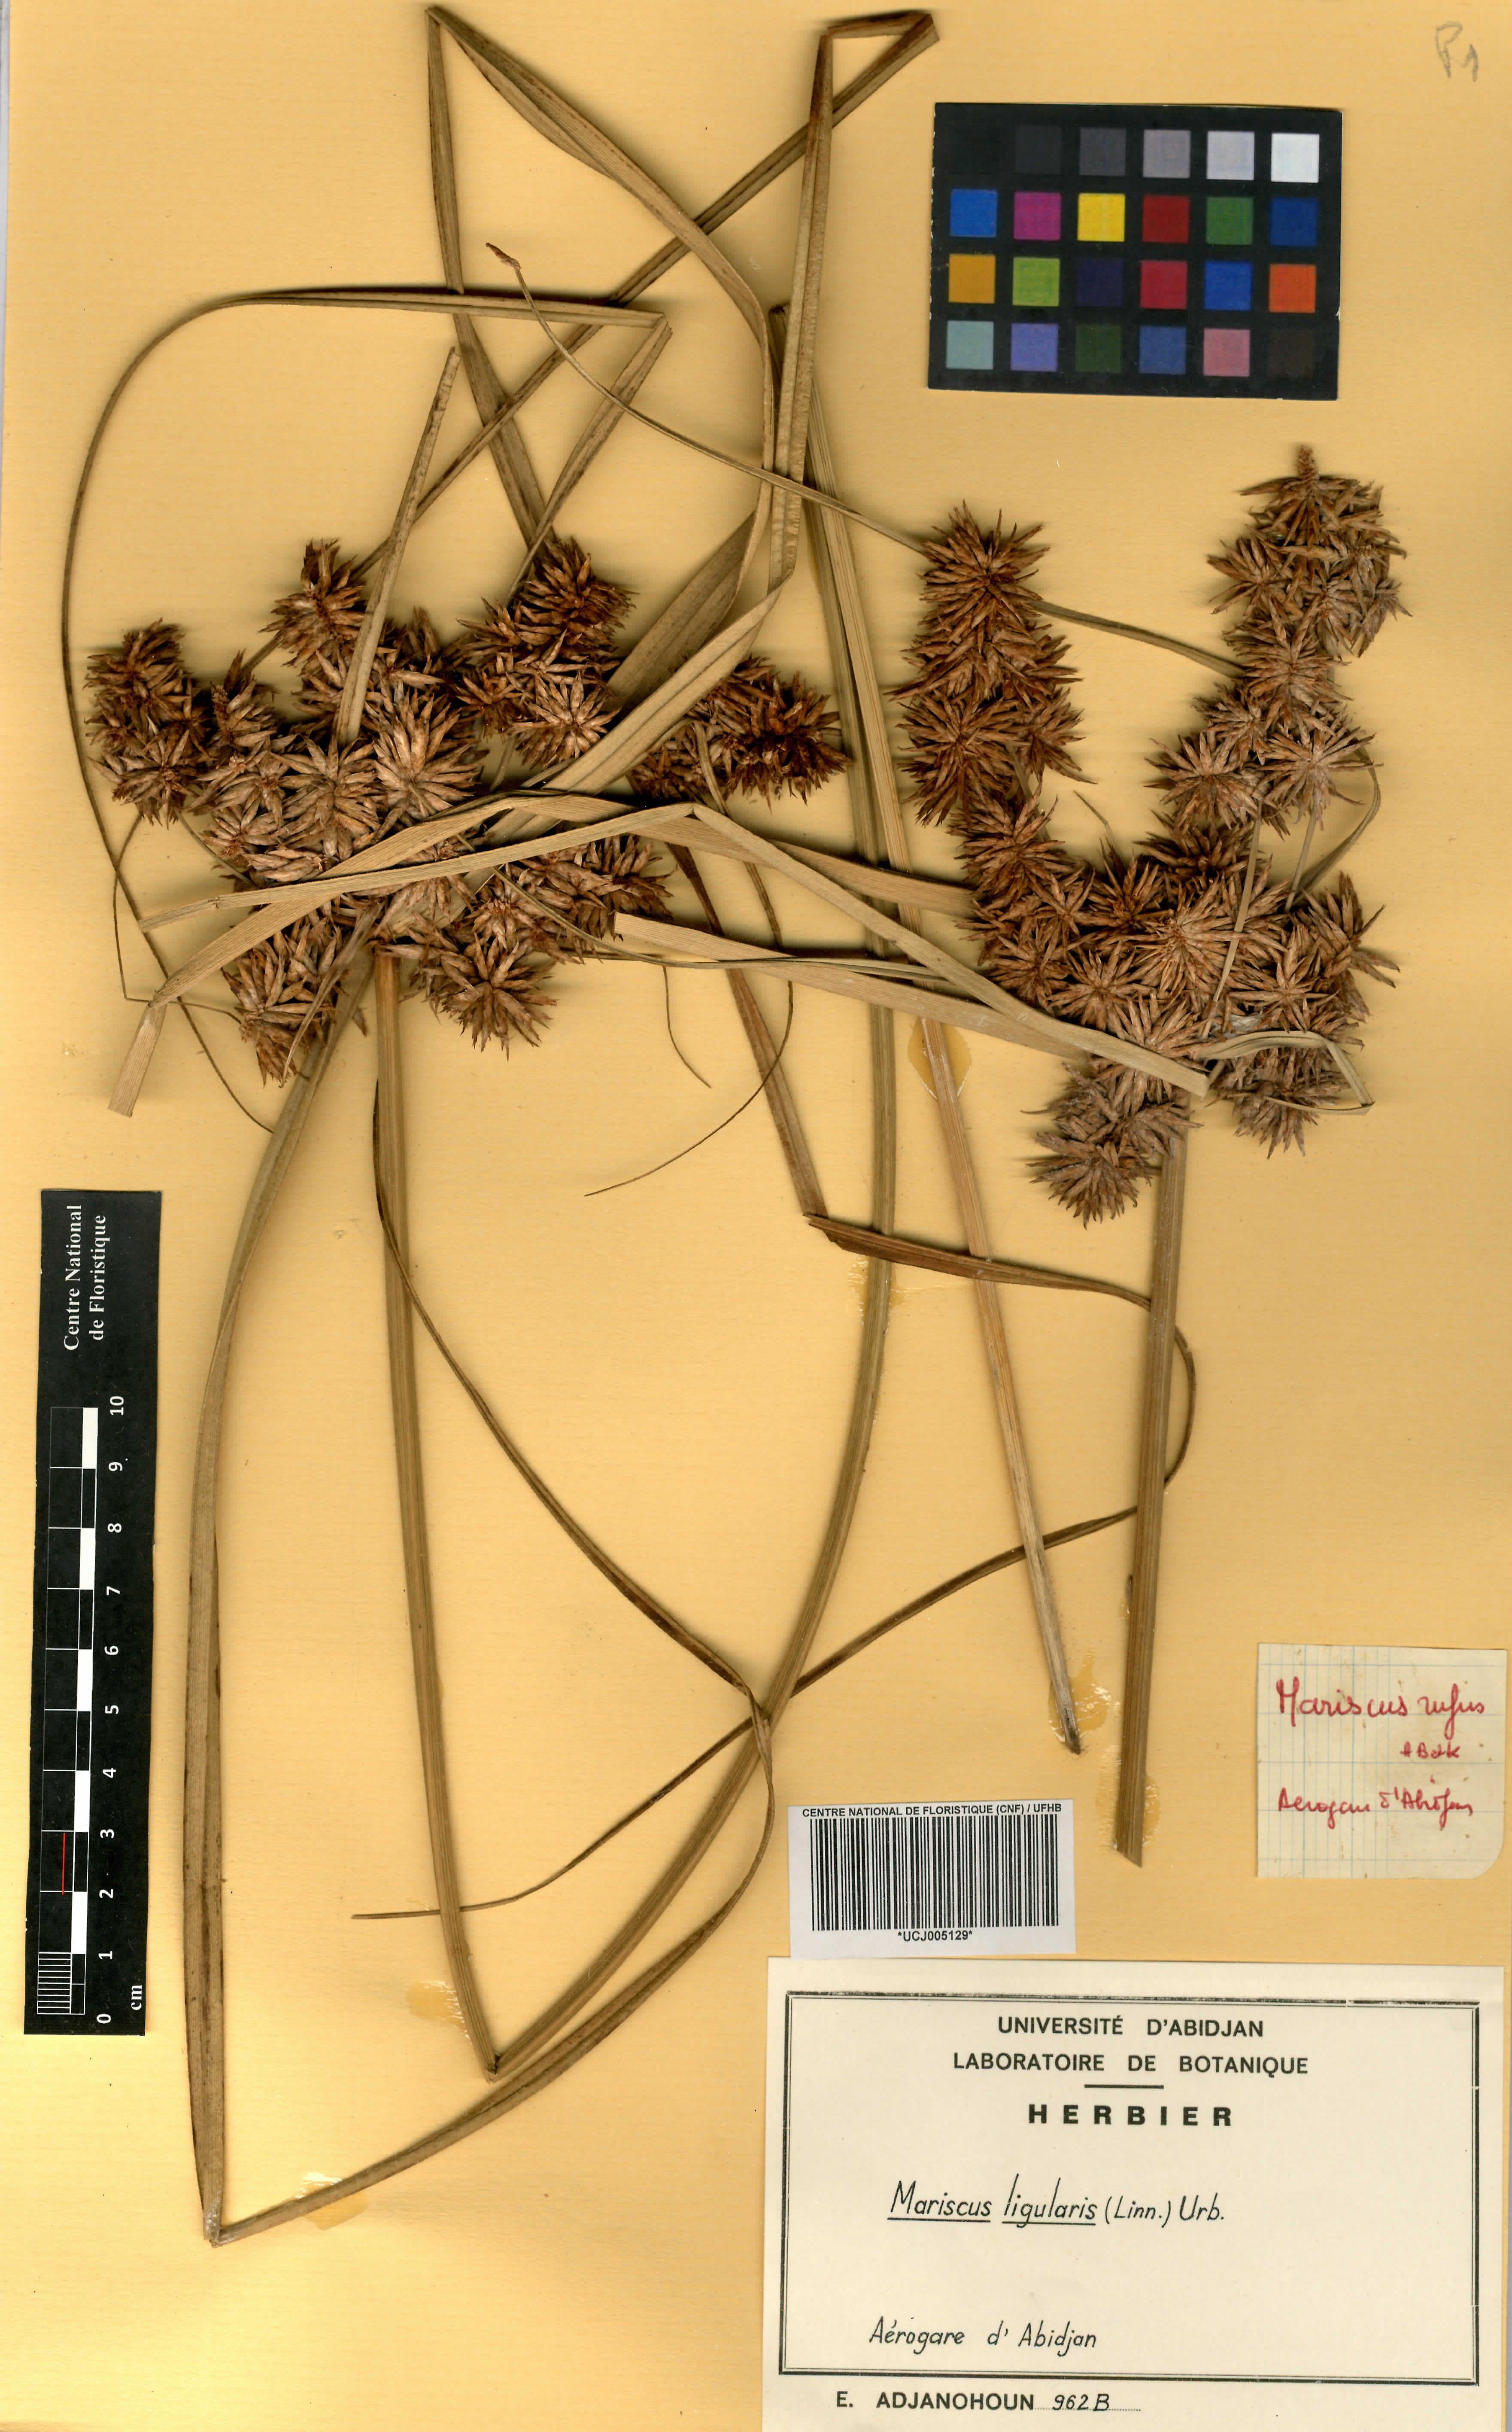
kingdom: Plantae
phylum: Tracheophyta
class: Liliopsida
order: Poales
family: Cyperaceae
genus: Cyperus
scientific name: Cyperus ligularis
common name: Swamp flat sedge
